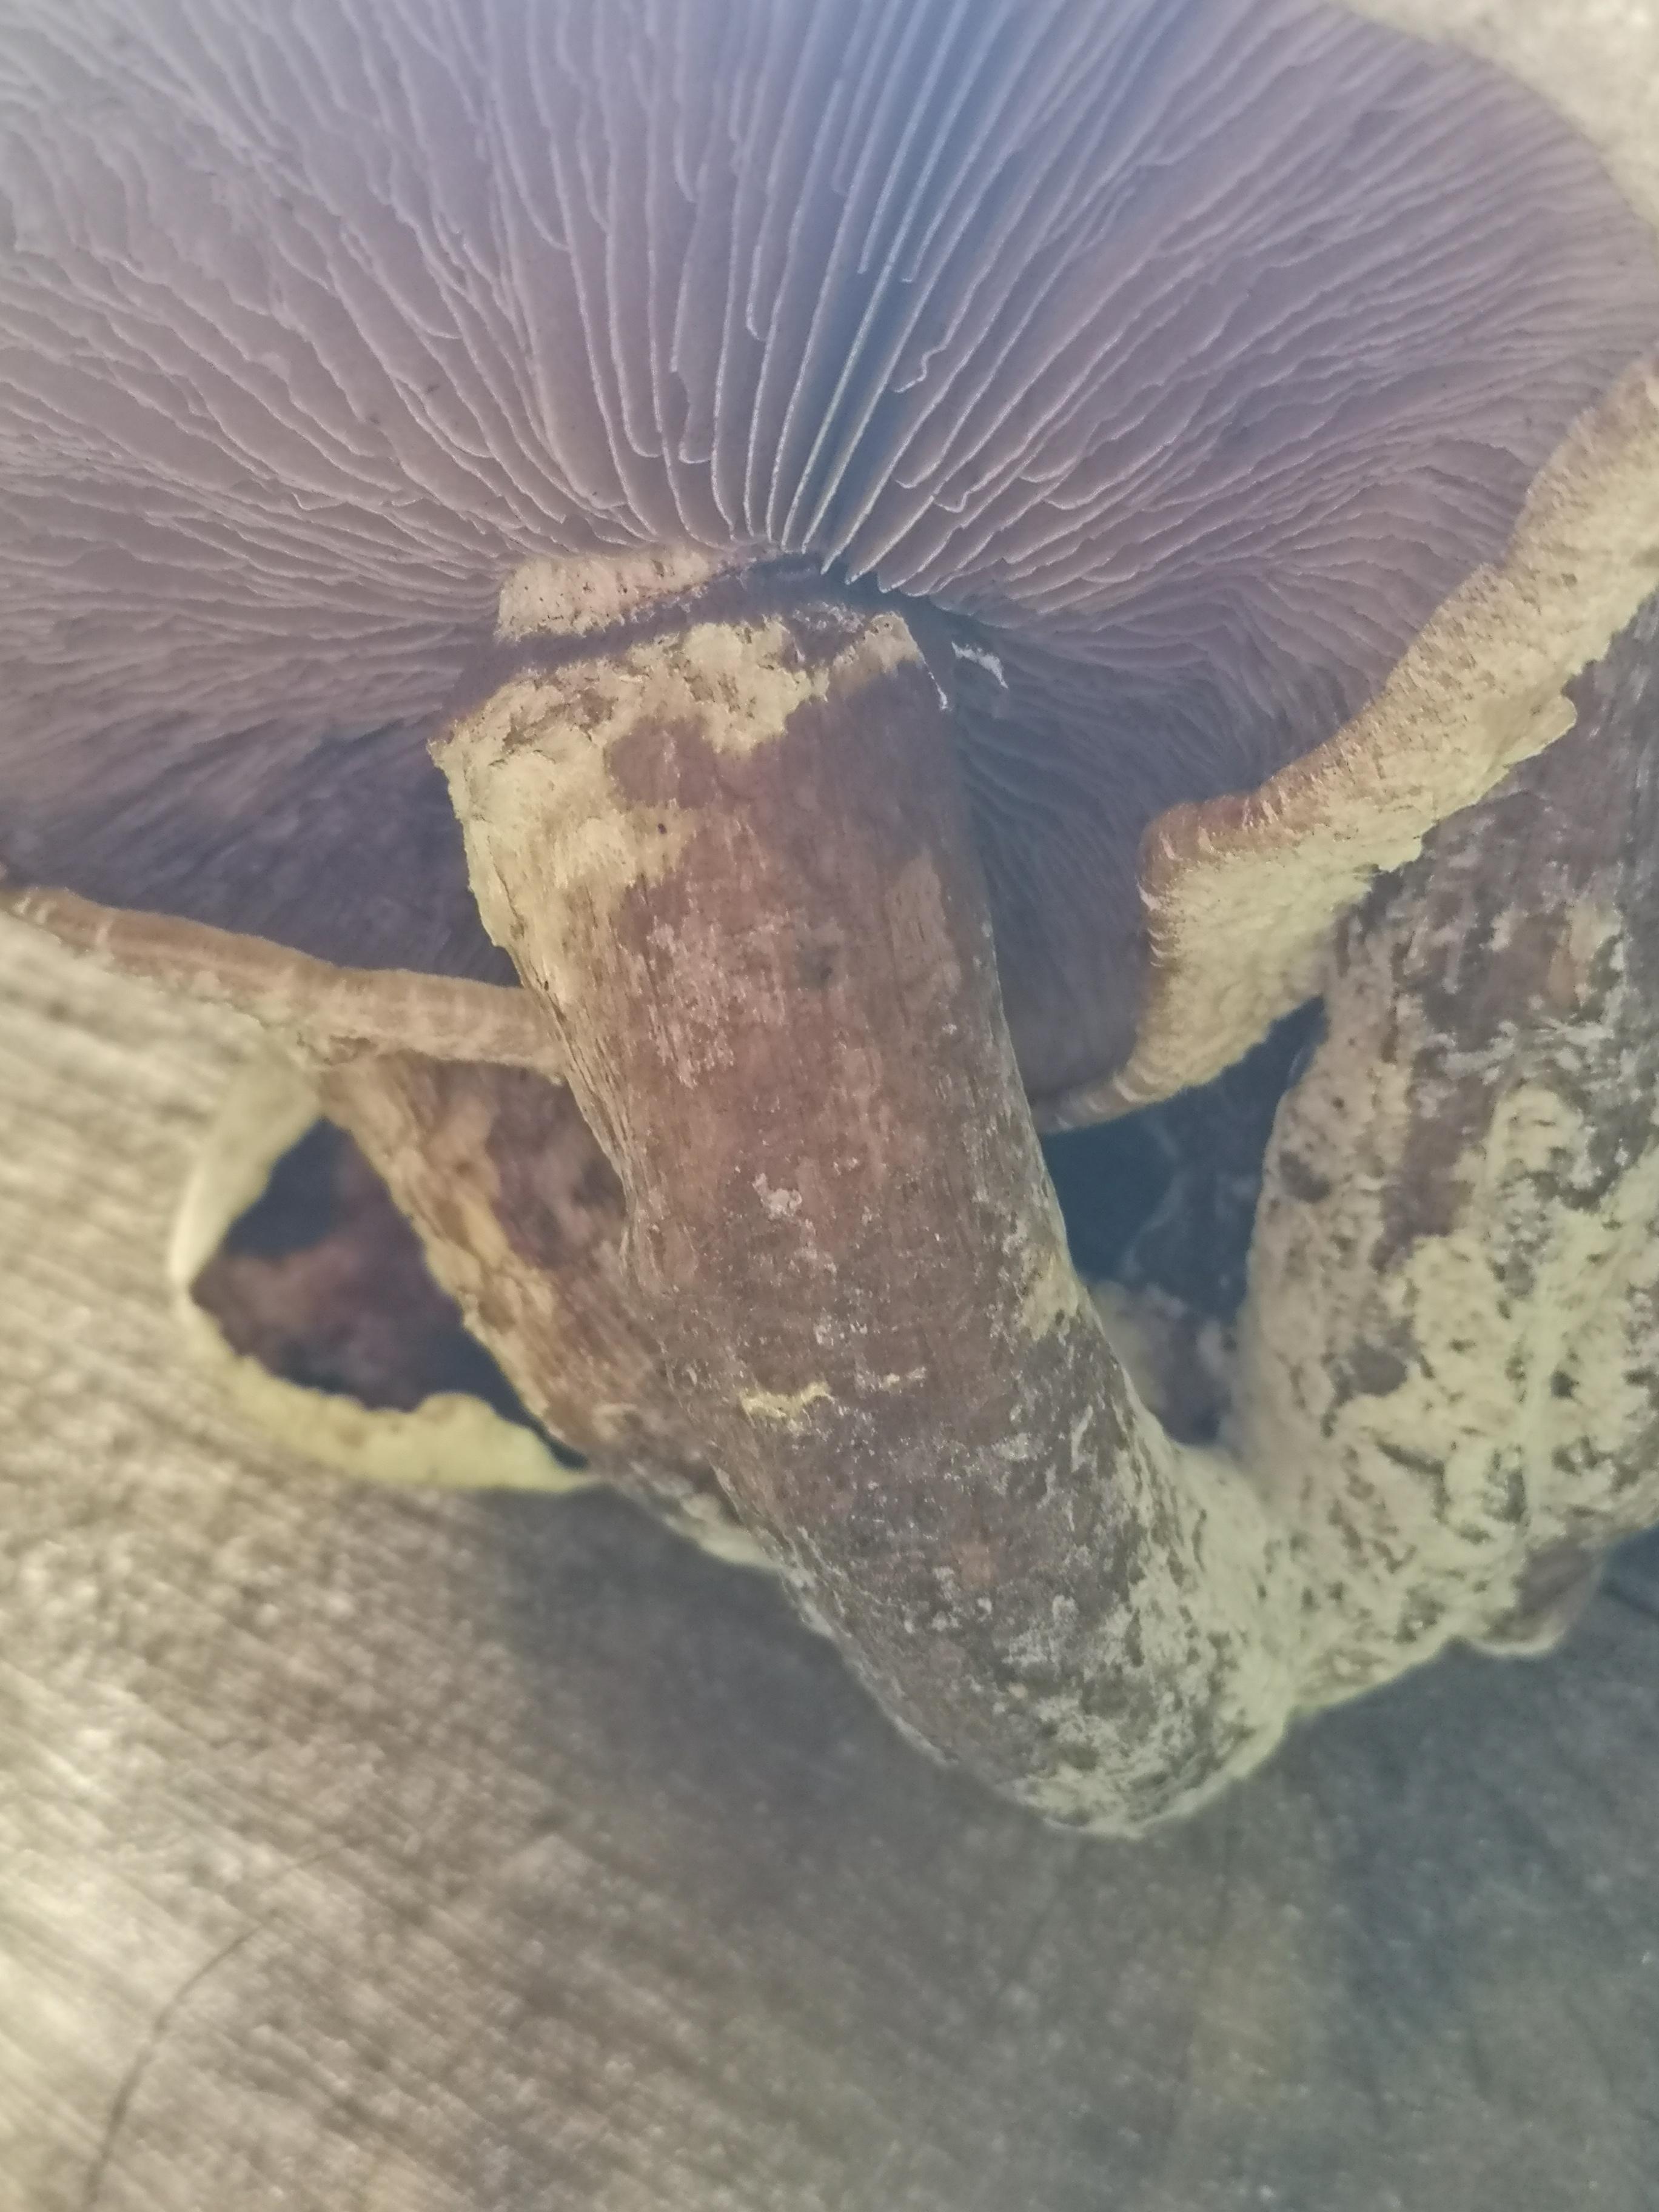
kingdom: Fungi
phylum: Basidiomycota
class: Agaricomycetes
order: Agaricales
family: Strophariaceae
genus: Pholiota
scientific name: Pholiota populnea
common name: poppel-kæmpeskælhat
